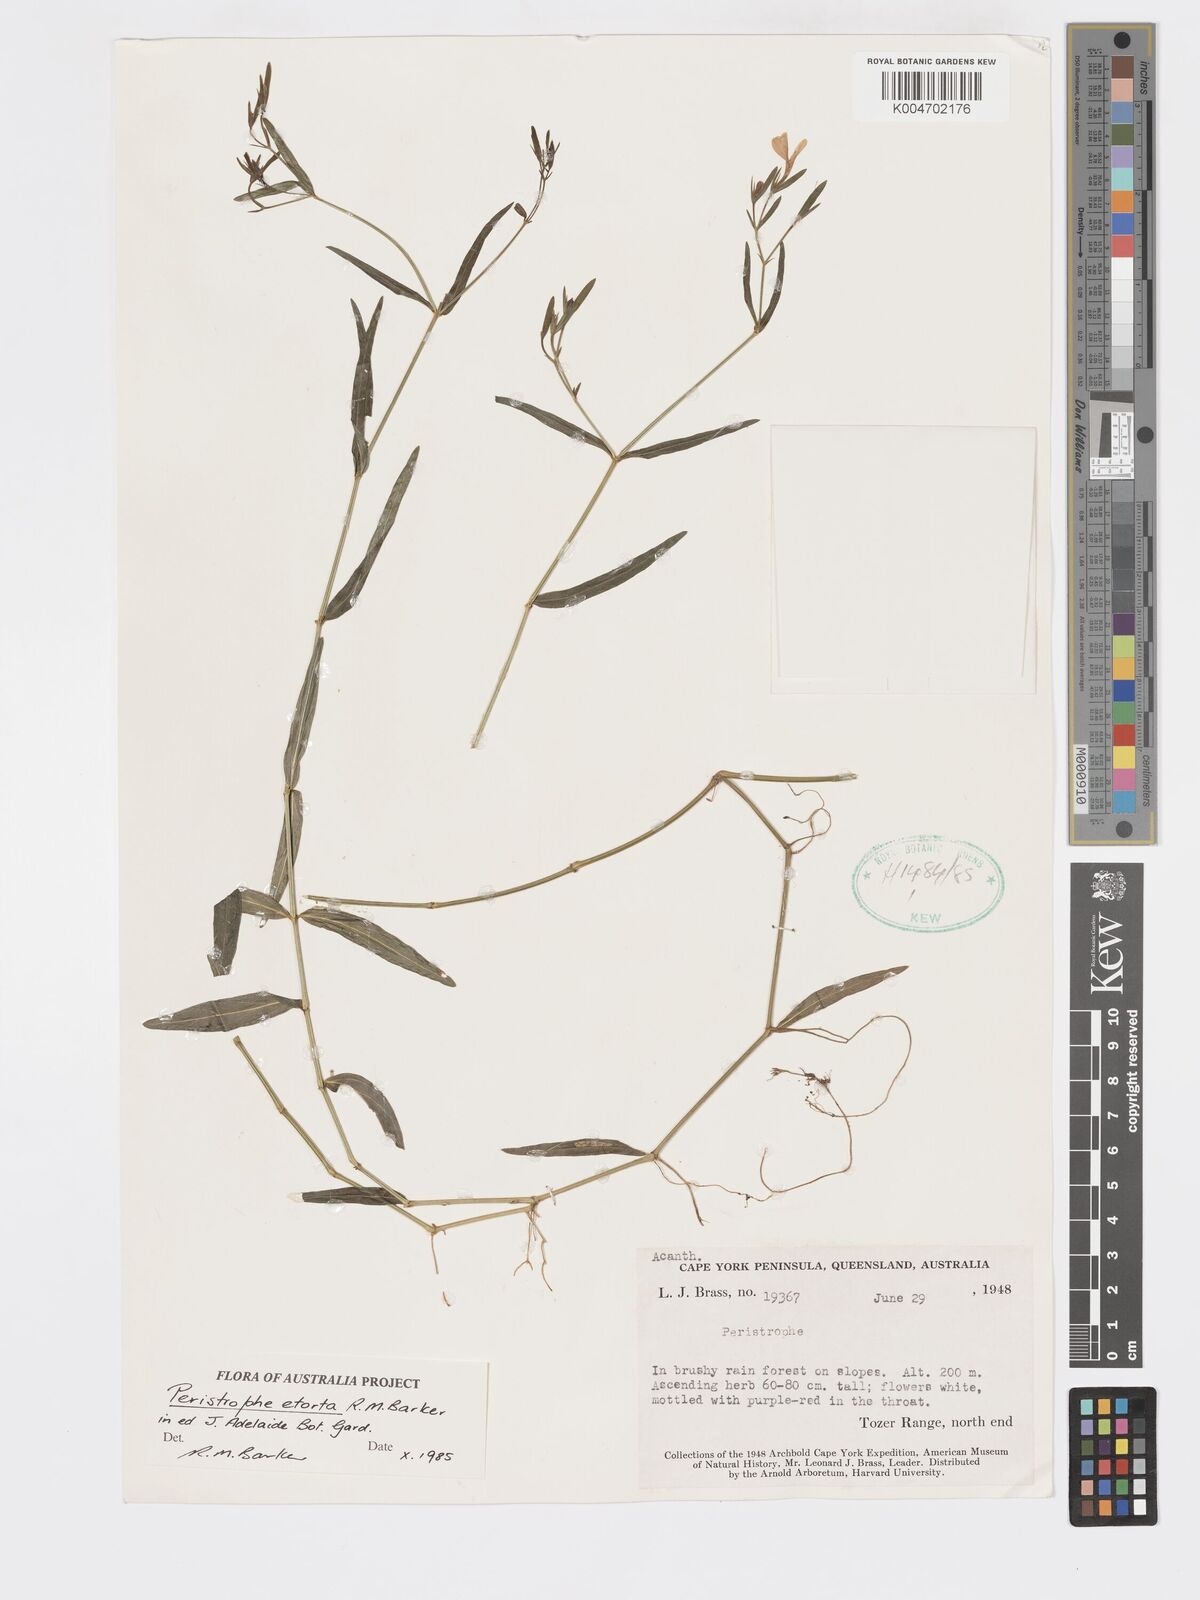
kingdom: Plantae
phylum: Tracheophyta
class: Magnoliopsida
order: Lamiales
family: Acanthaceae
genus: Dicliptera
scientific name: Dicliptera extenta
